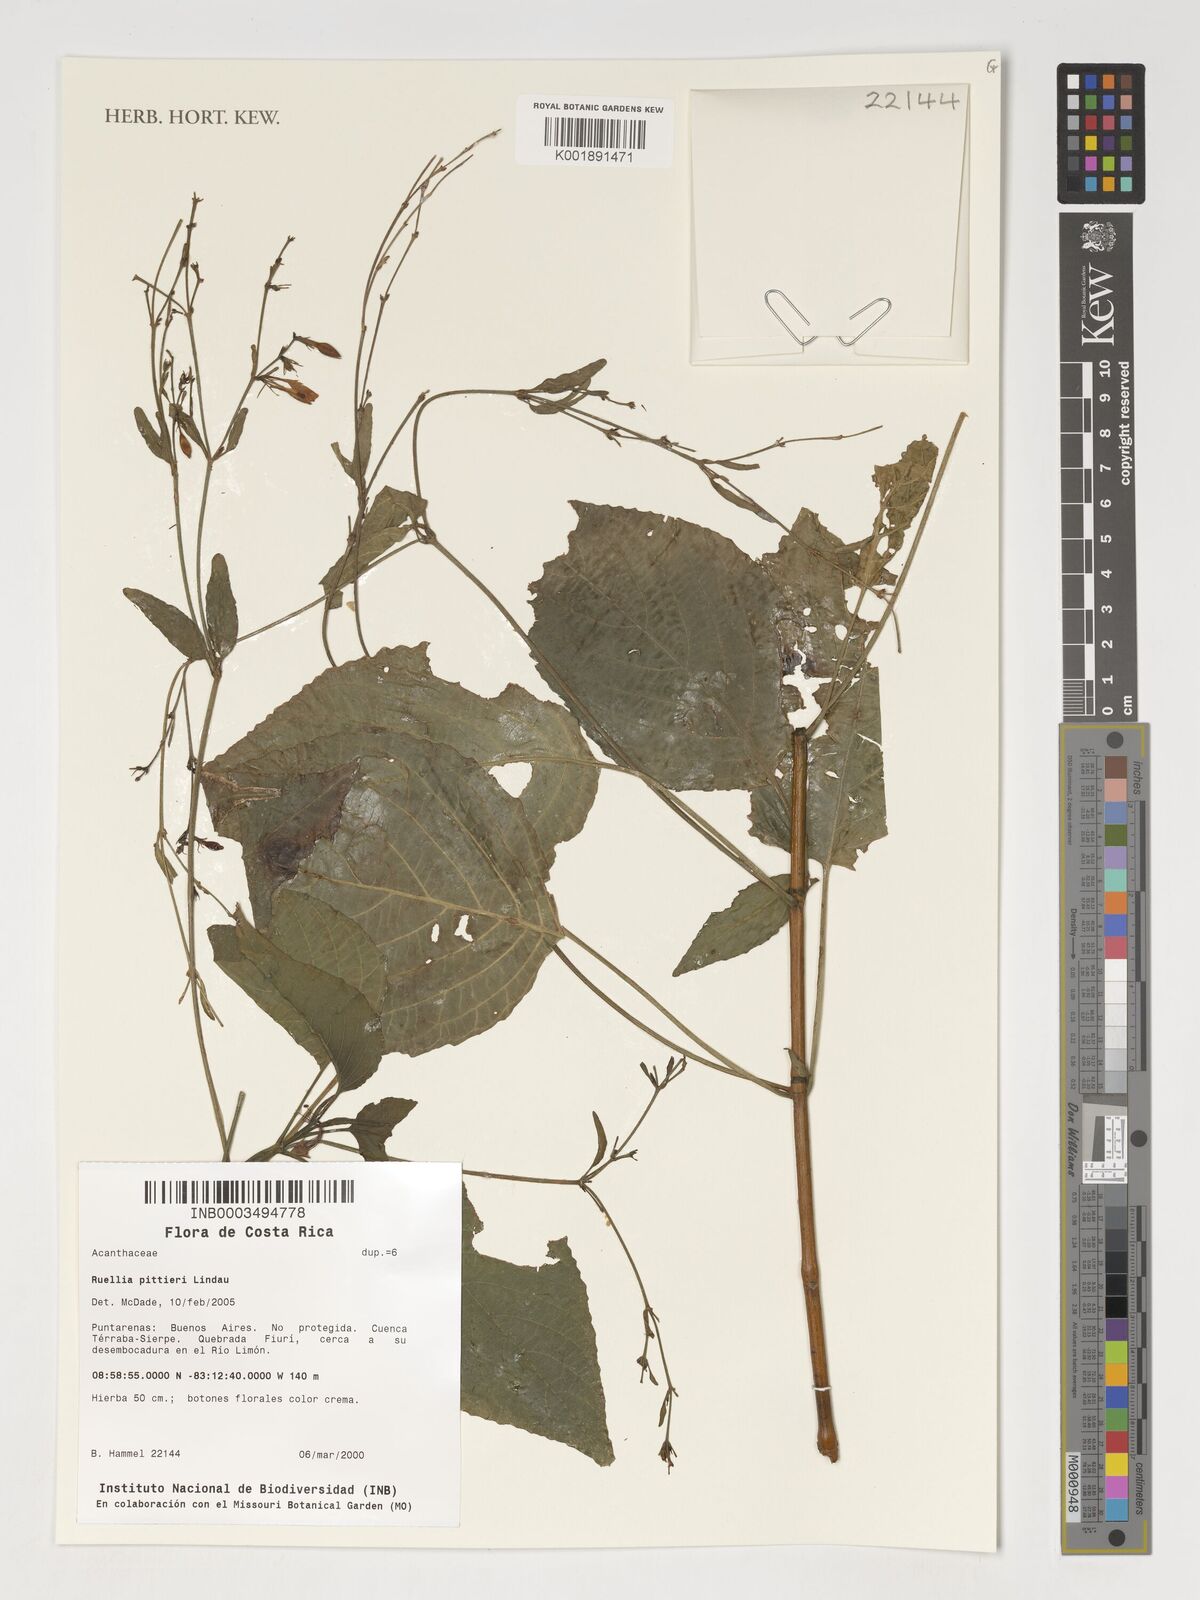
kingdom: Plantae
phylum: Tracheophyta
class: Magnoliopsida
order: Lamiales
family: Acanthaceae
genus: Ruellia
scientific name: Ruellia pittieri
